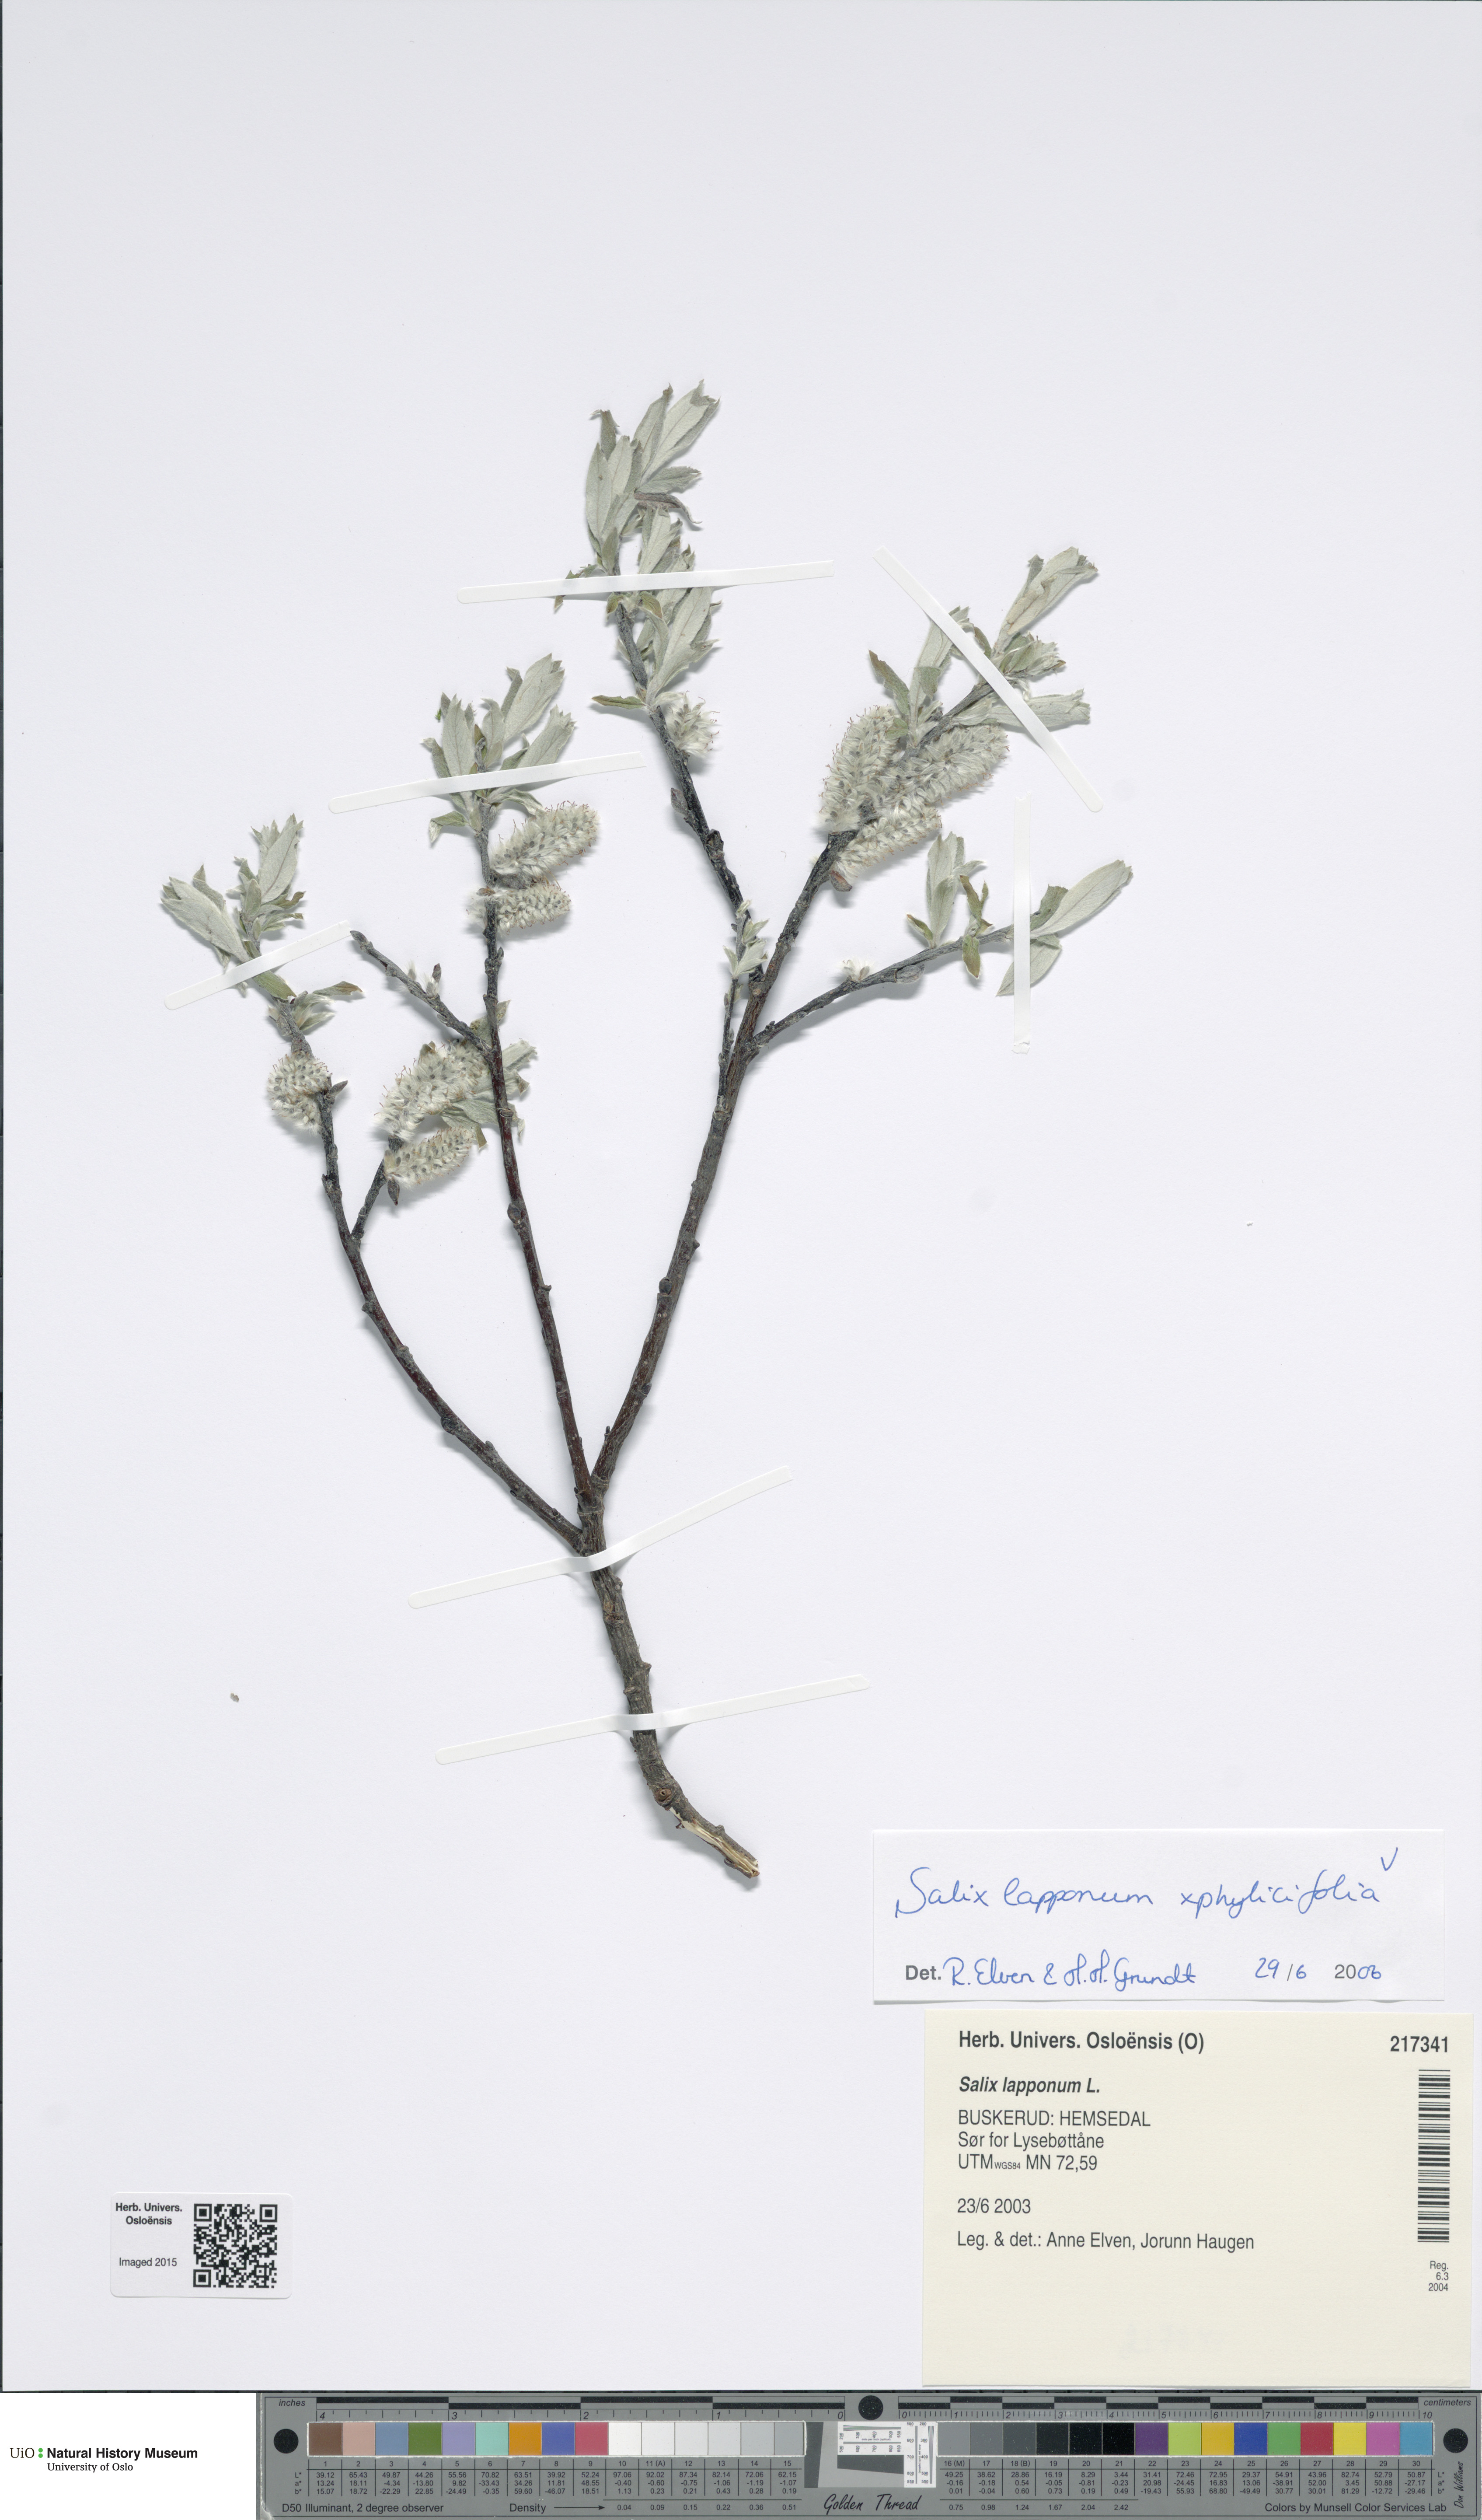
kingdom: Plantae
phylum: Tracheophyta
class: Magnoliopsida
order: Malpighiales
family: Salicaceae
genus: Salix
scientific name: Salix
